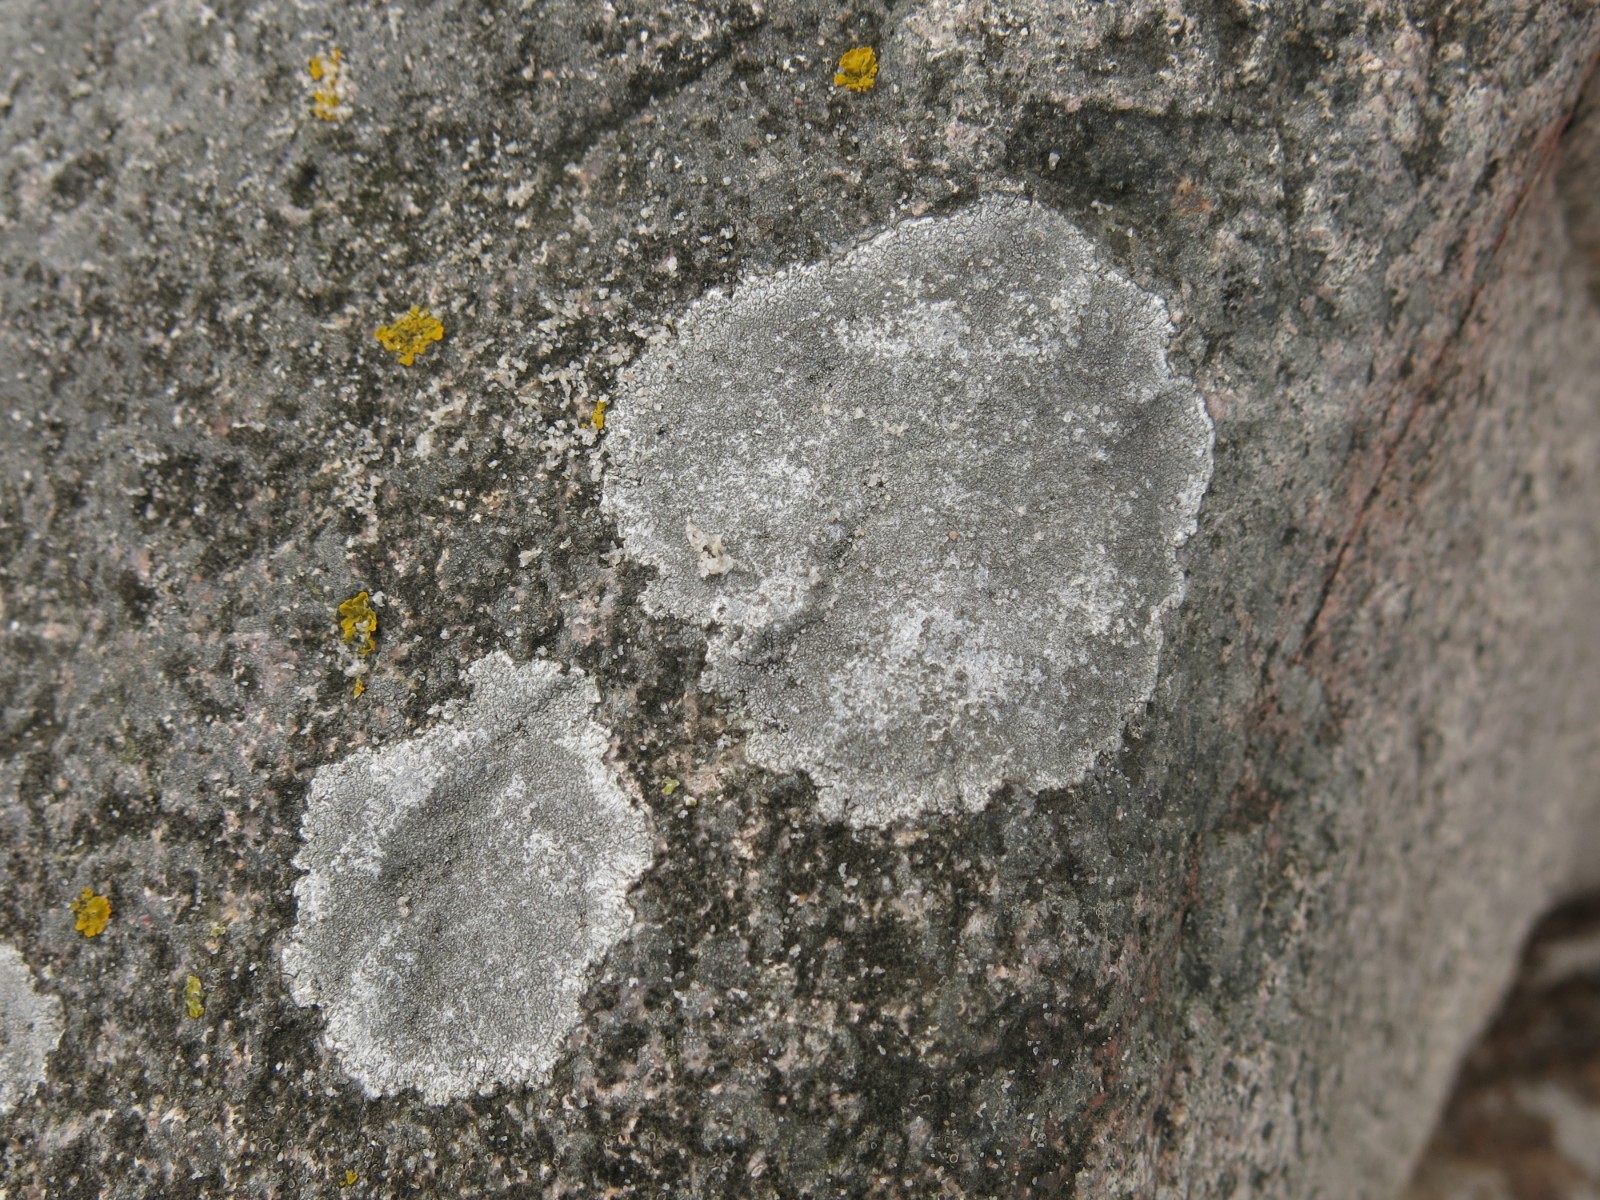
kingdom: Fungi
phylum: Ascomycota
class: Lecanoromycetes
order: Pertusariales
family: Megasporaceae
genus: Circinaria
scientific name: Circinaria leprosescens
